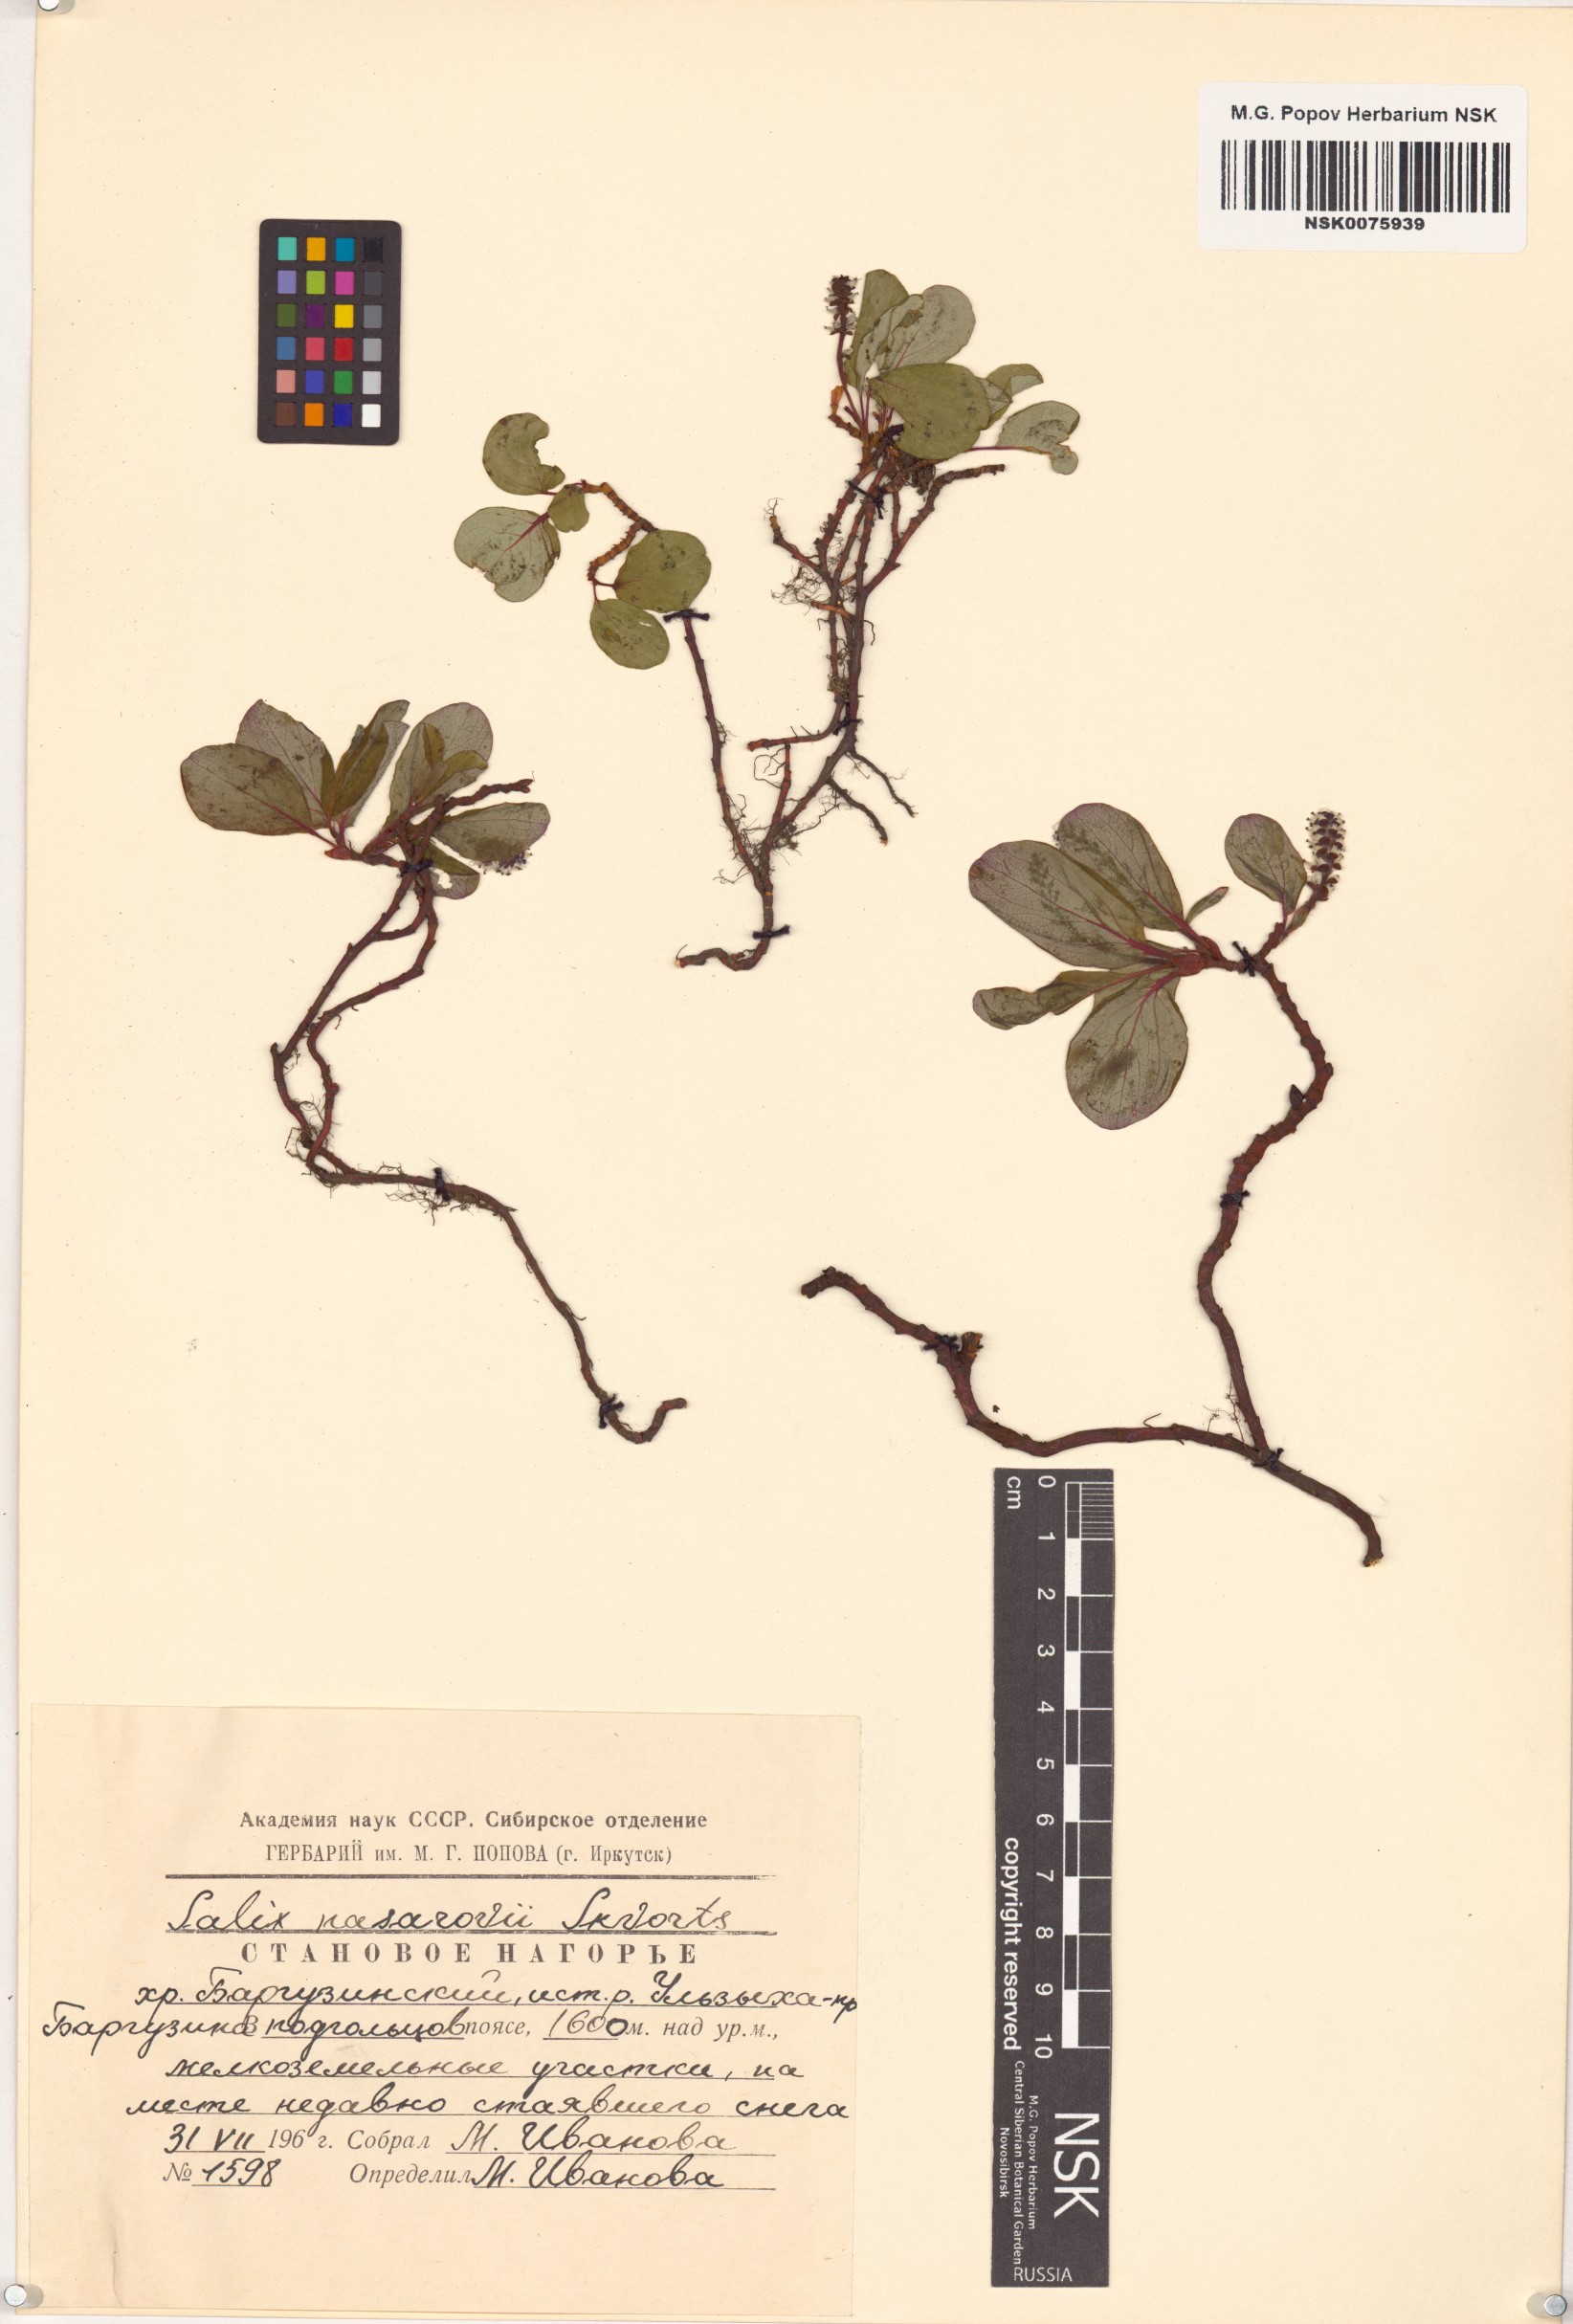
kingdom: Plantae
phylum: Tracheophyta
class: Magnoliopsida
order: Malpighiales
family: Salicaceae
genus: Salix
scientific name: Salix nasarovii
